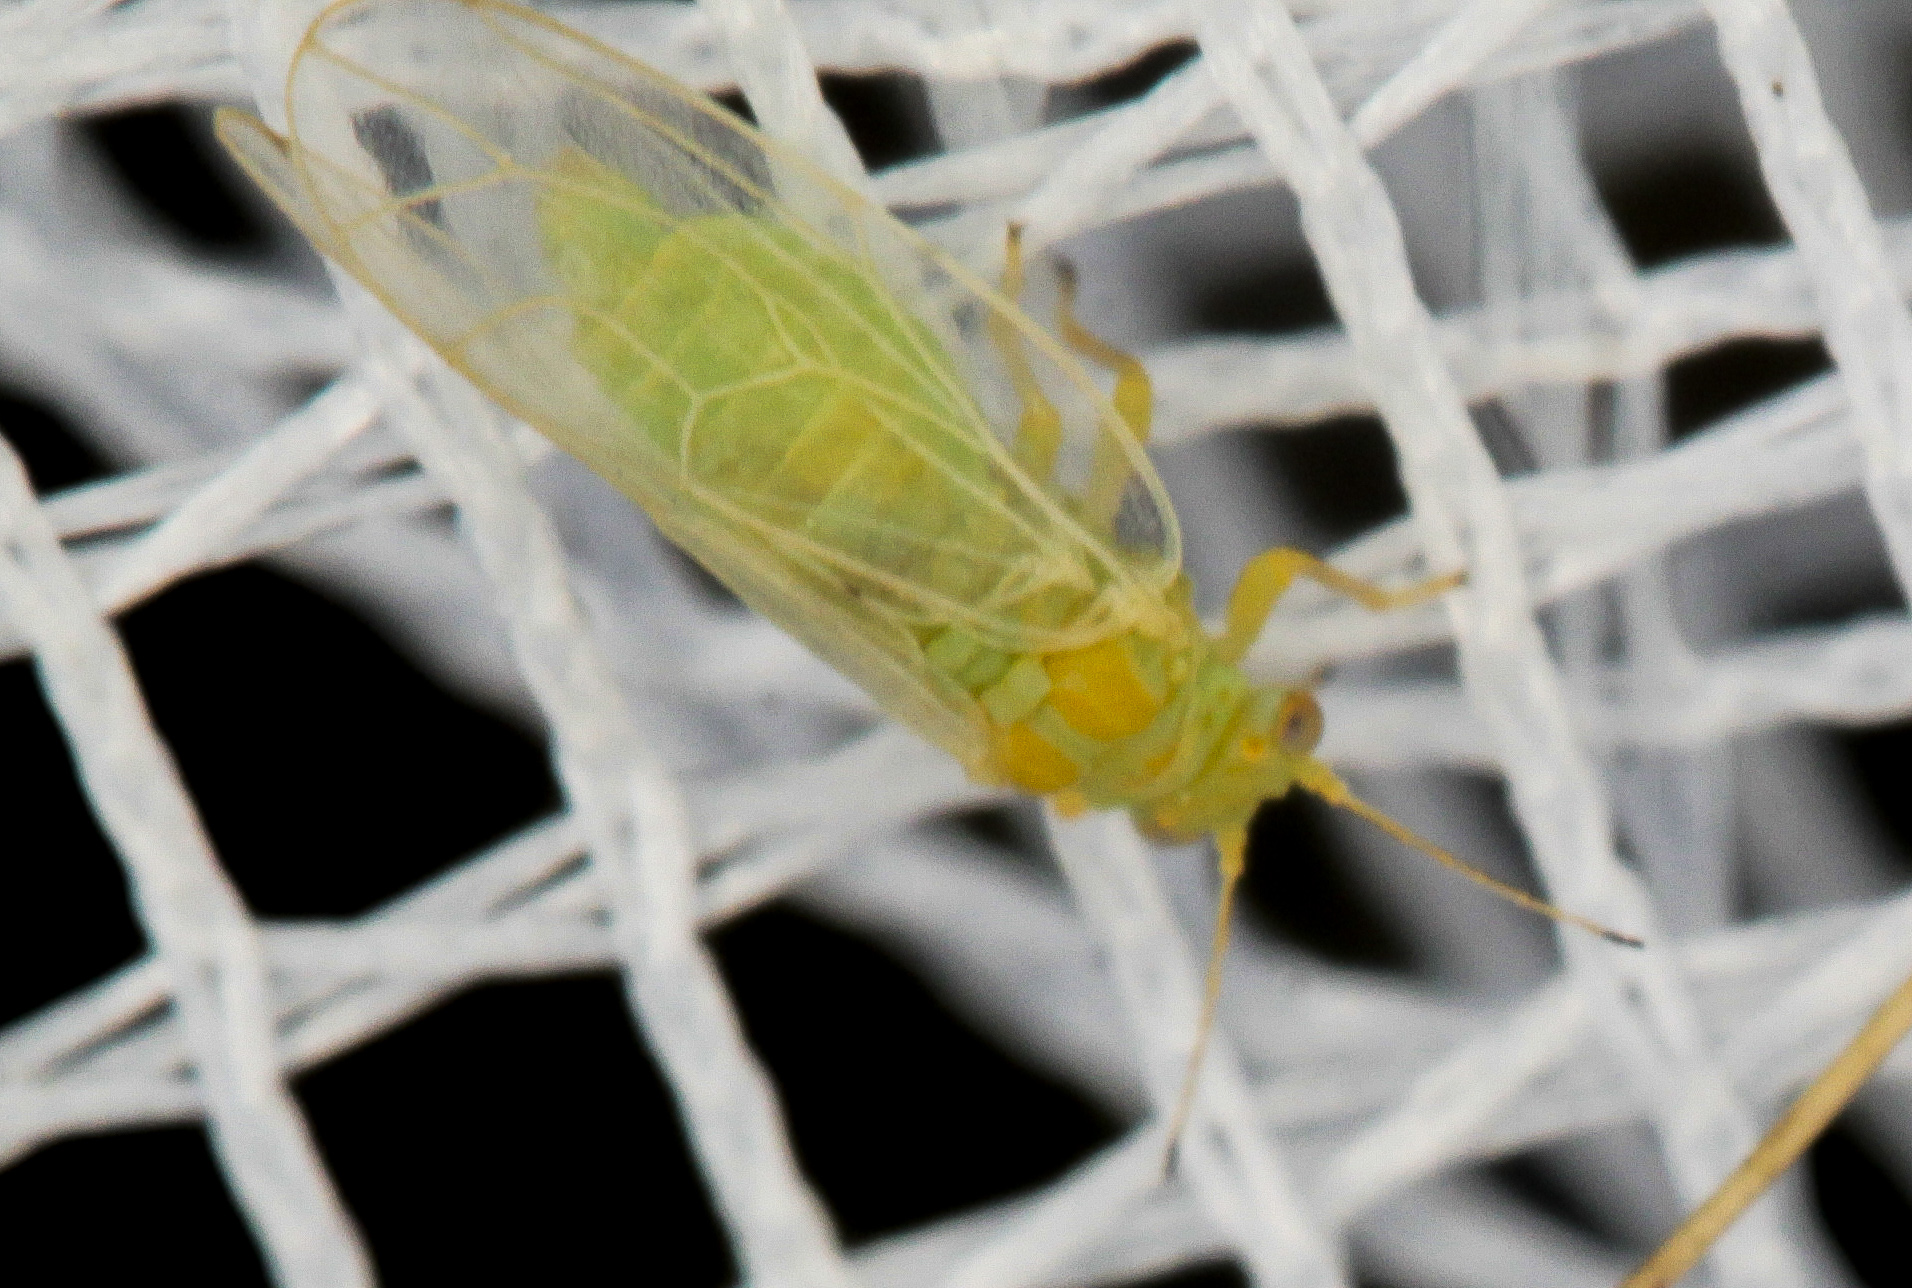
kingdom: Animalia
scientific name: Animalia
